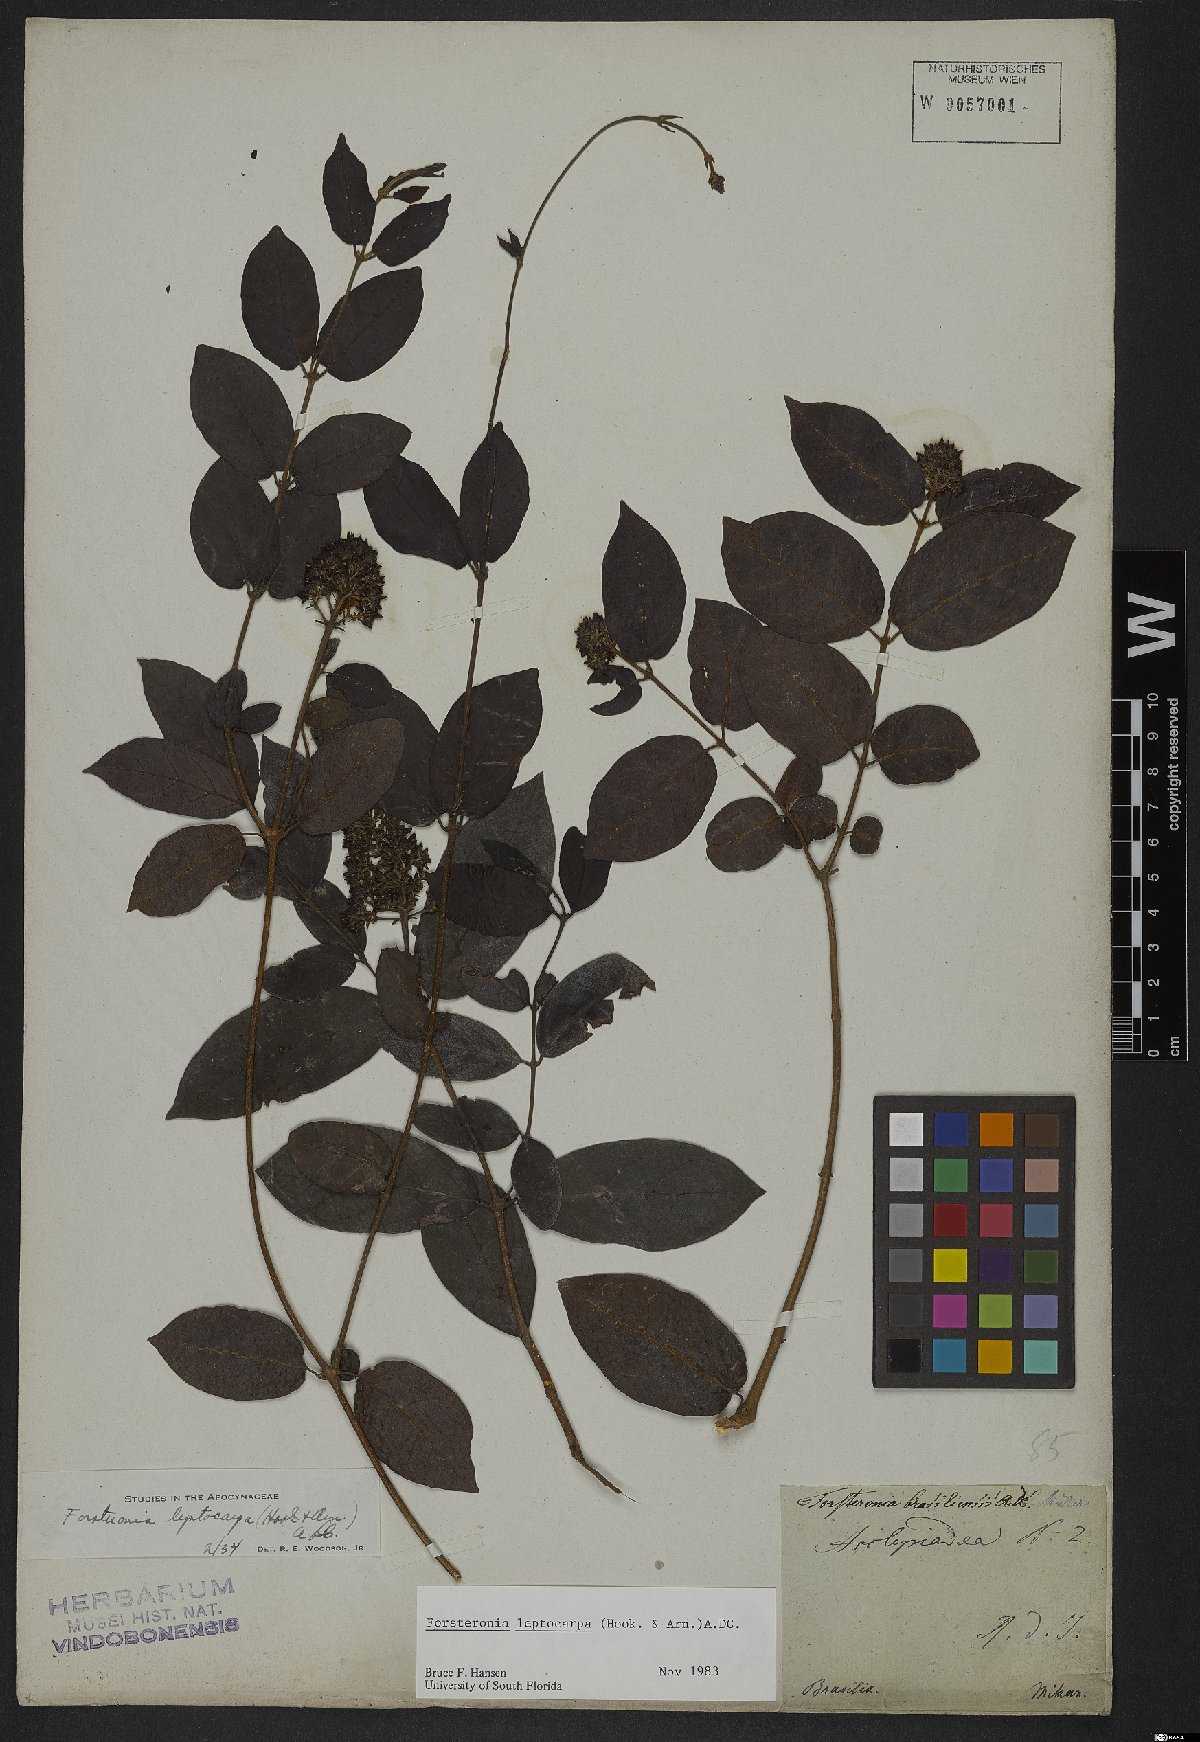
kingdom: Plantae
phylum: Tracheophyta
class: Magnoliopsida
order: Gentianales
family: Apocynaceae
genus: Forsteronia
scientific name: Forsteronia leptocarpa
